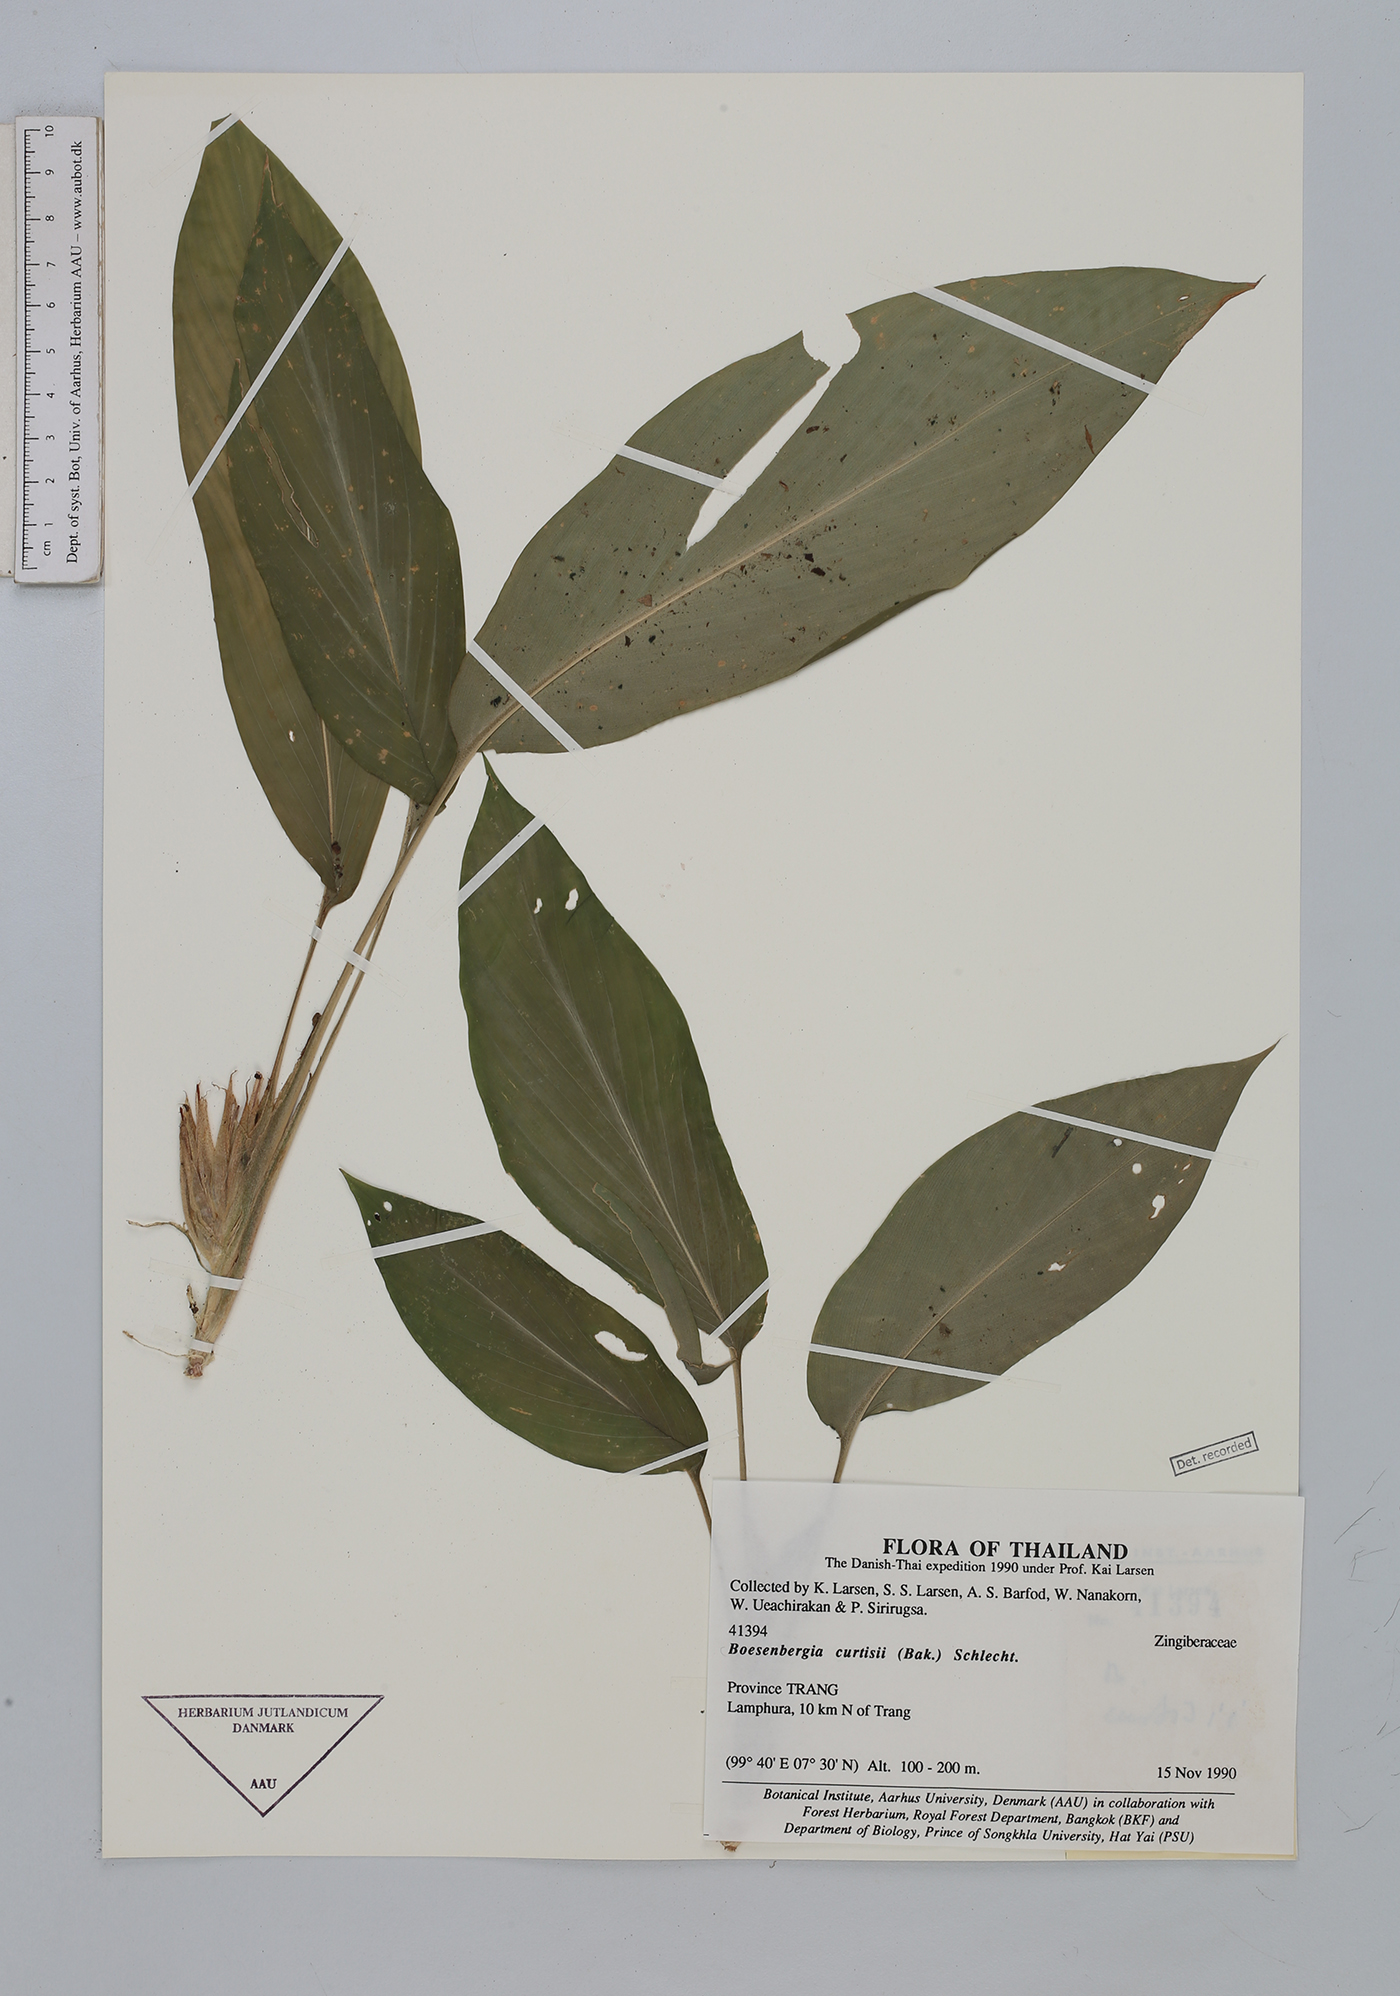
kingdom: Plantae
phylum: Tracheophyta
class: Liliopsida
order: Zingiberales
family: Zingiberaceae
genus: Boesenbergia
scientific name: Boesenbergia curtisii
